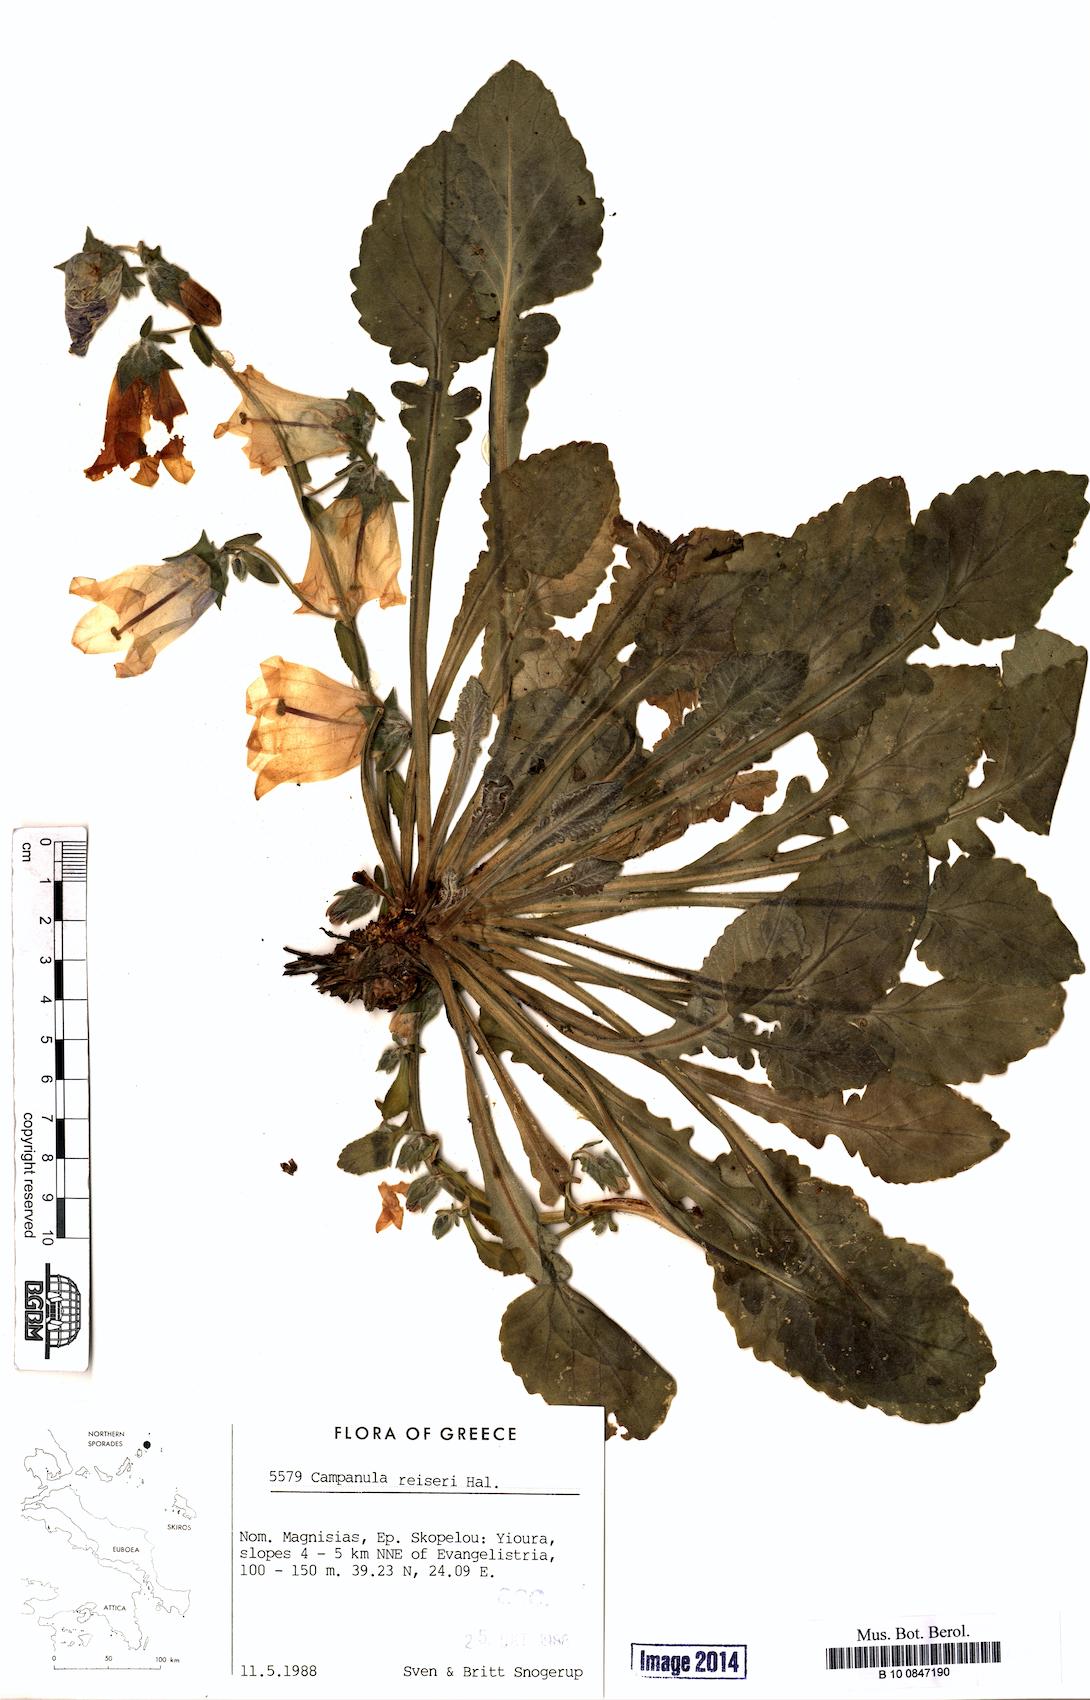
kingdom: Plantae
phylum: Tracheophyta
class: Magnoliopsida
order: Asterales
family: Campanulaceae
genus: Campanula
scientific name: Campanula reiseri
